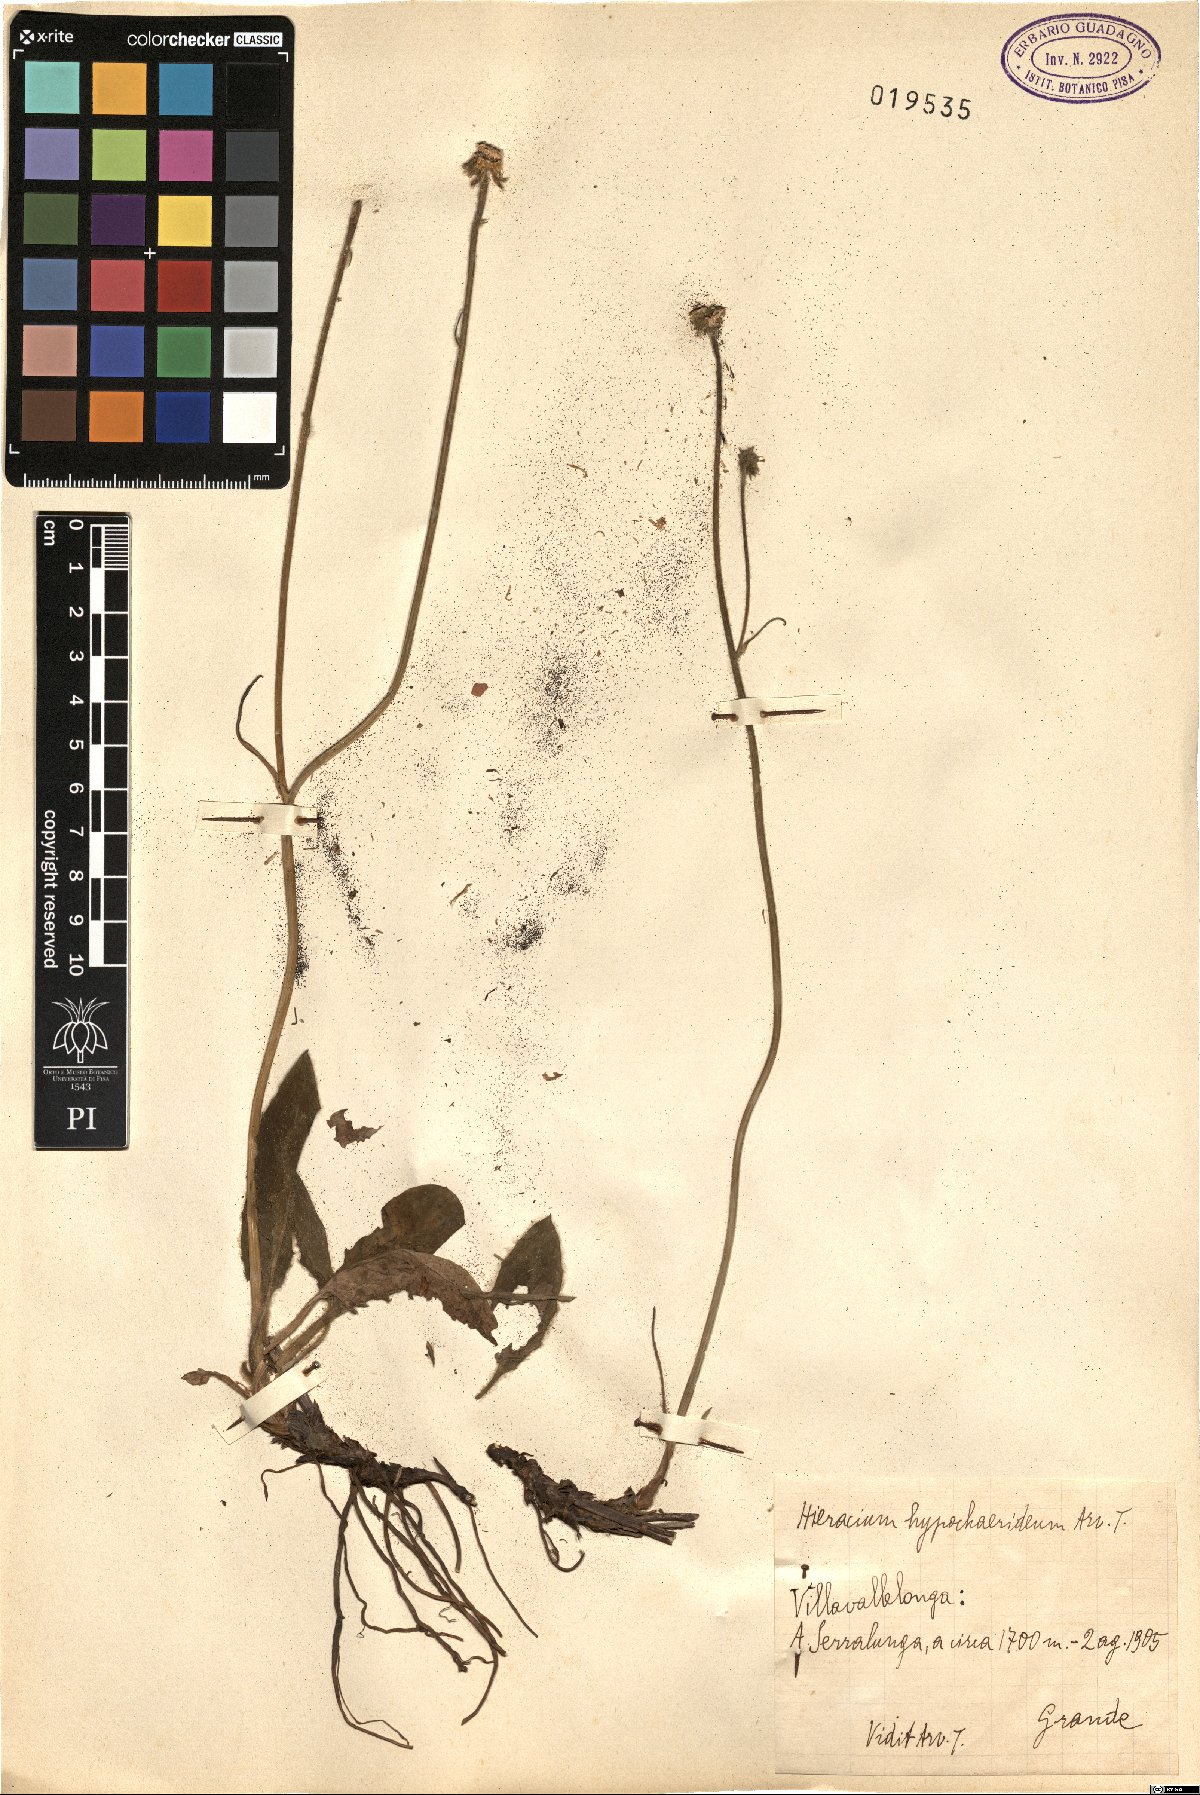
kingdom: Plantae
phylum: Tracheophyta
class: Magnoliopsida
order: Asterales
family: Asteraceae
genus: Hieracium
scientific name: Hieracium cirritum
